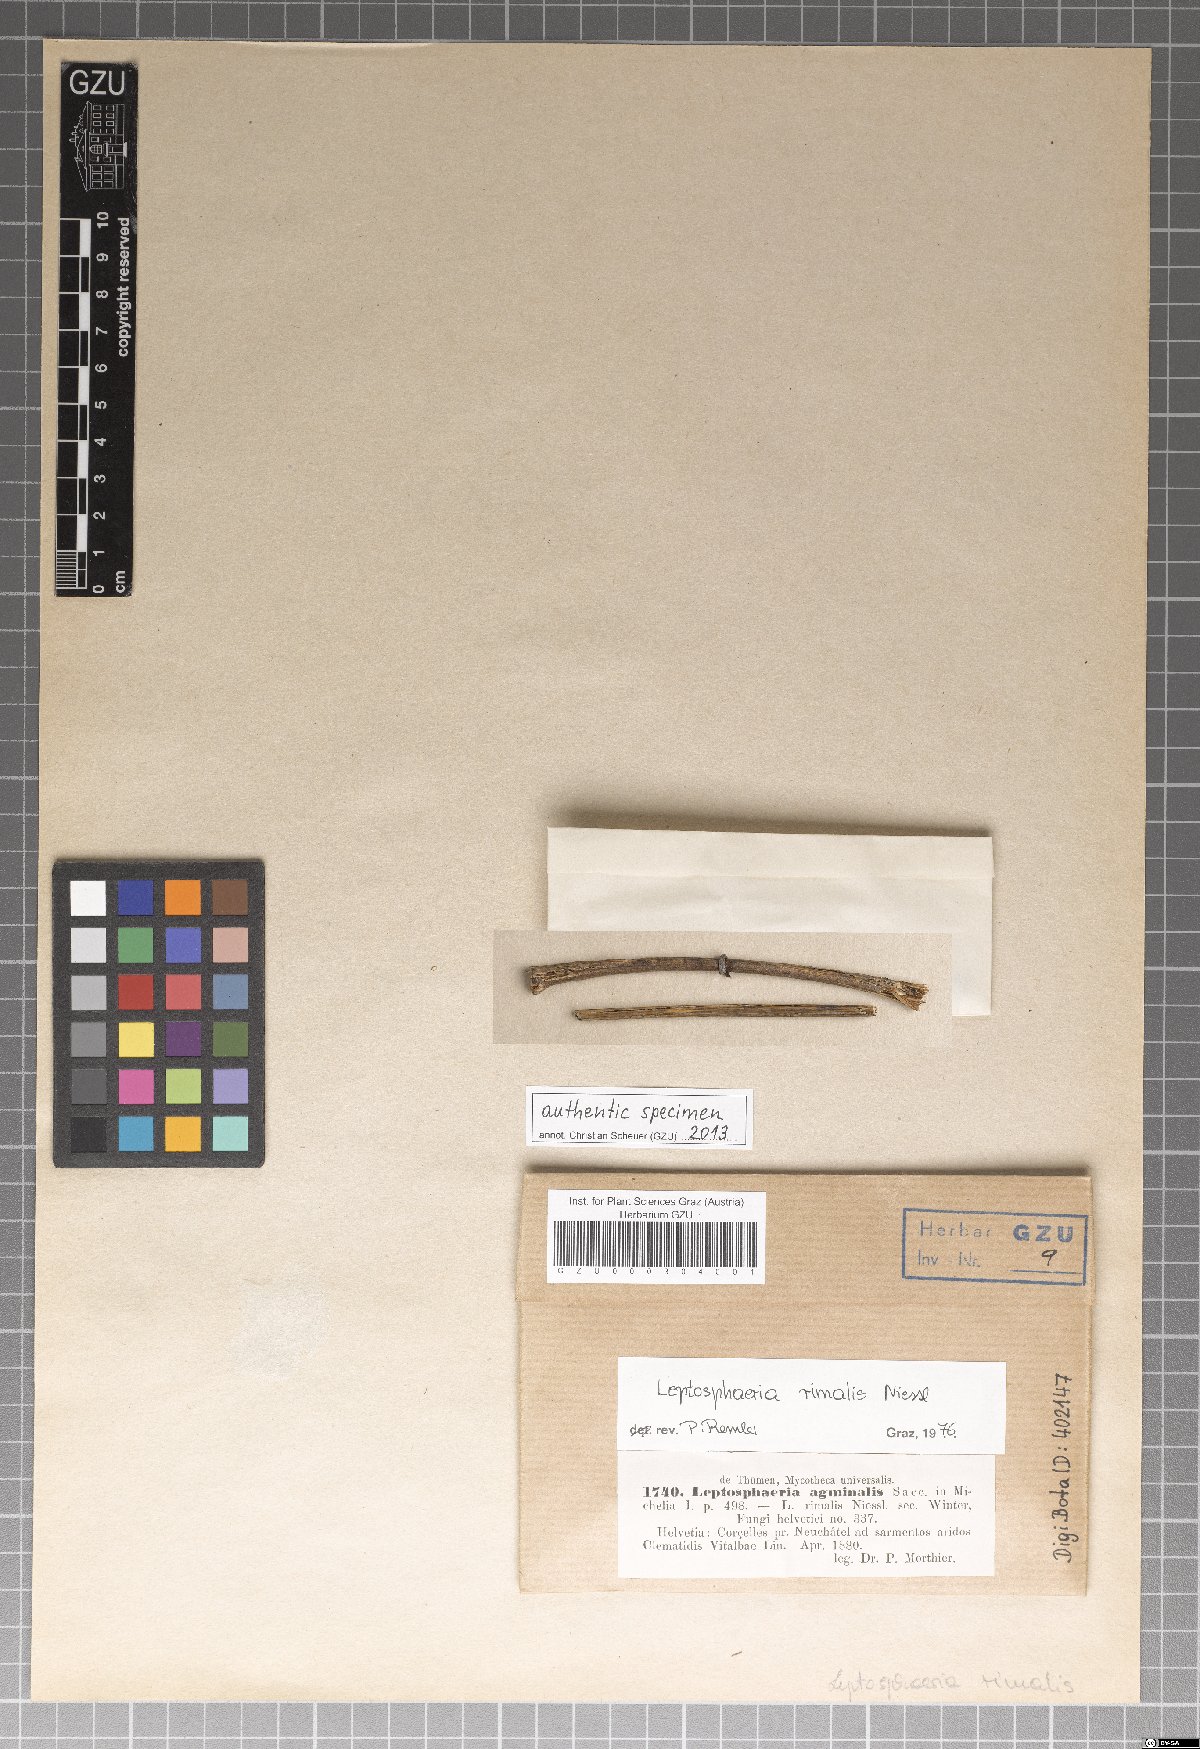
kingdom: Fungi
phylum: Ascomycota
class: Dothideomycetes
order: Pleosporales
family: Phaeosphaeriaceae
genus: Phaeosphaeria
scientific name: Phaeosphaeria agminalis
